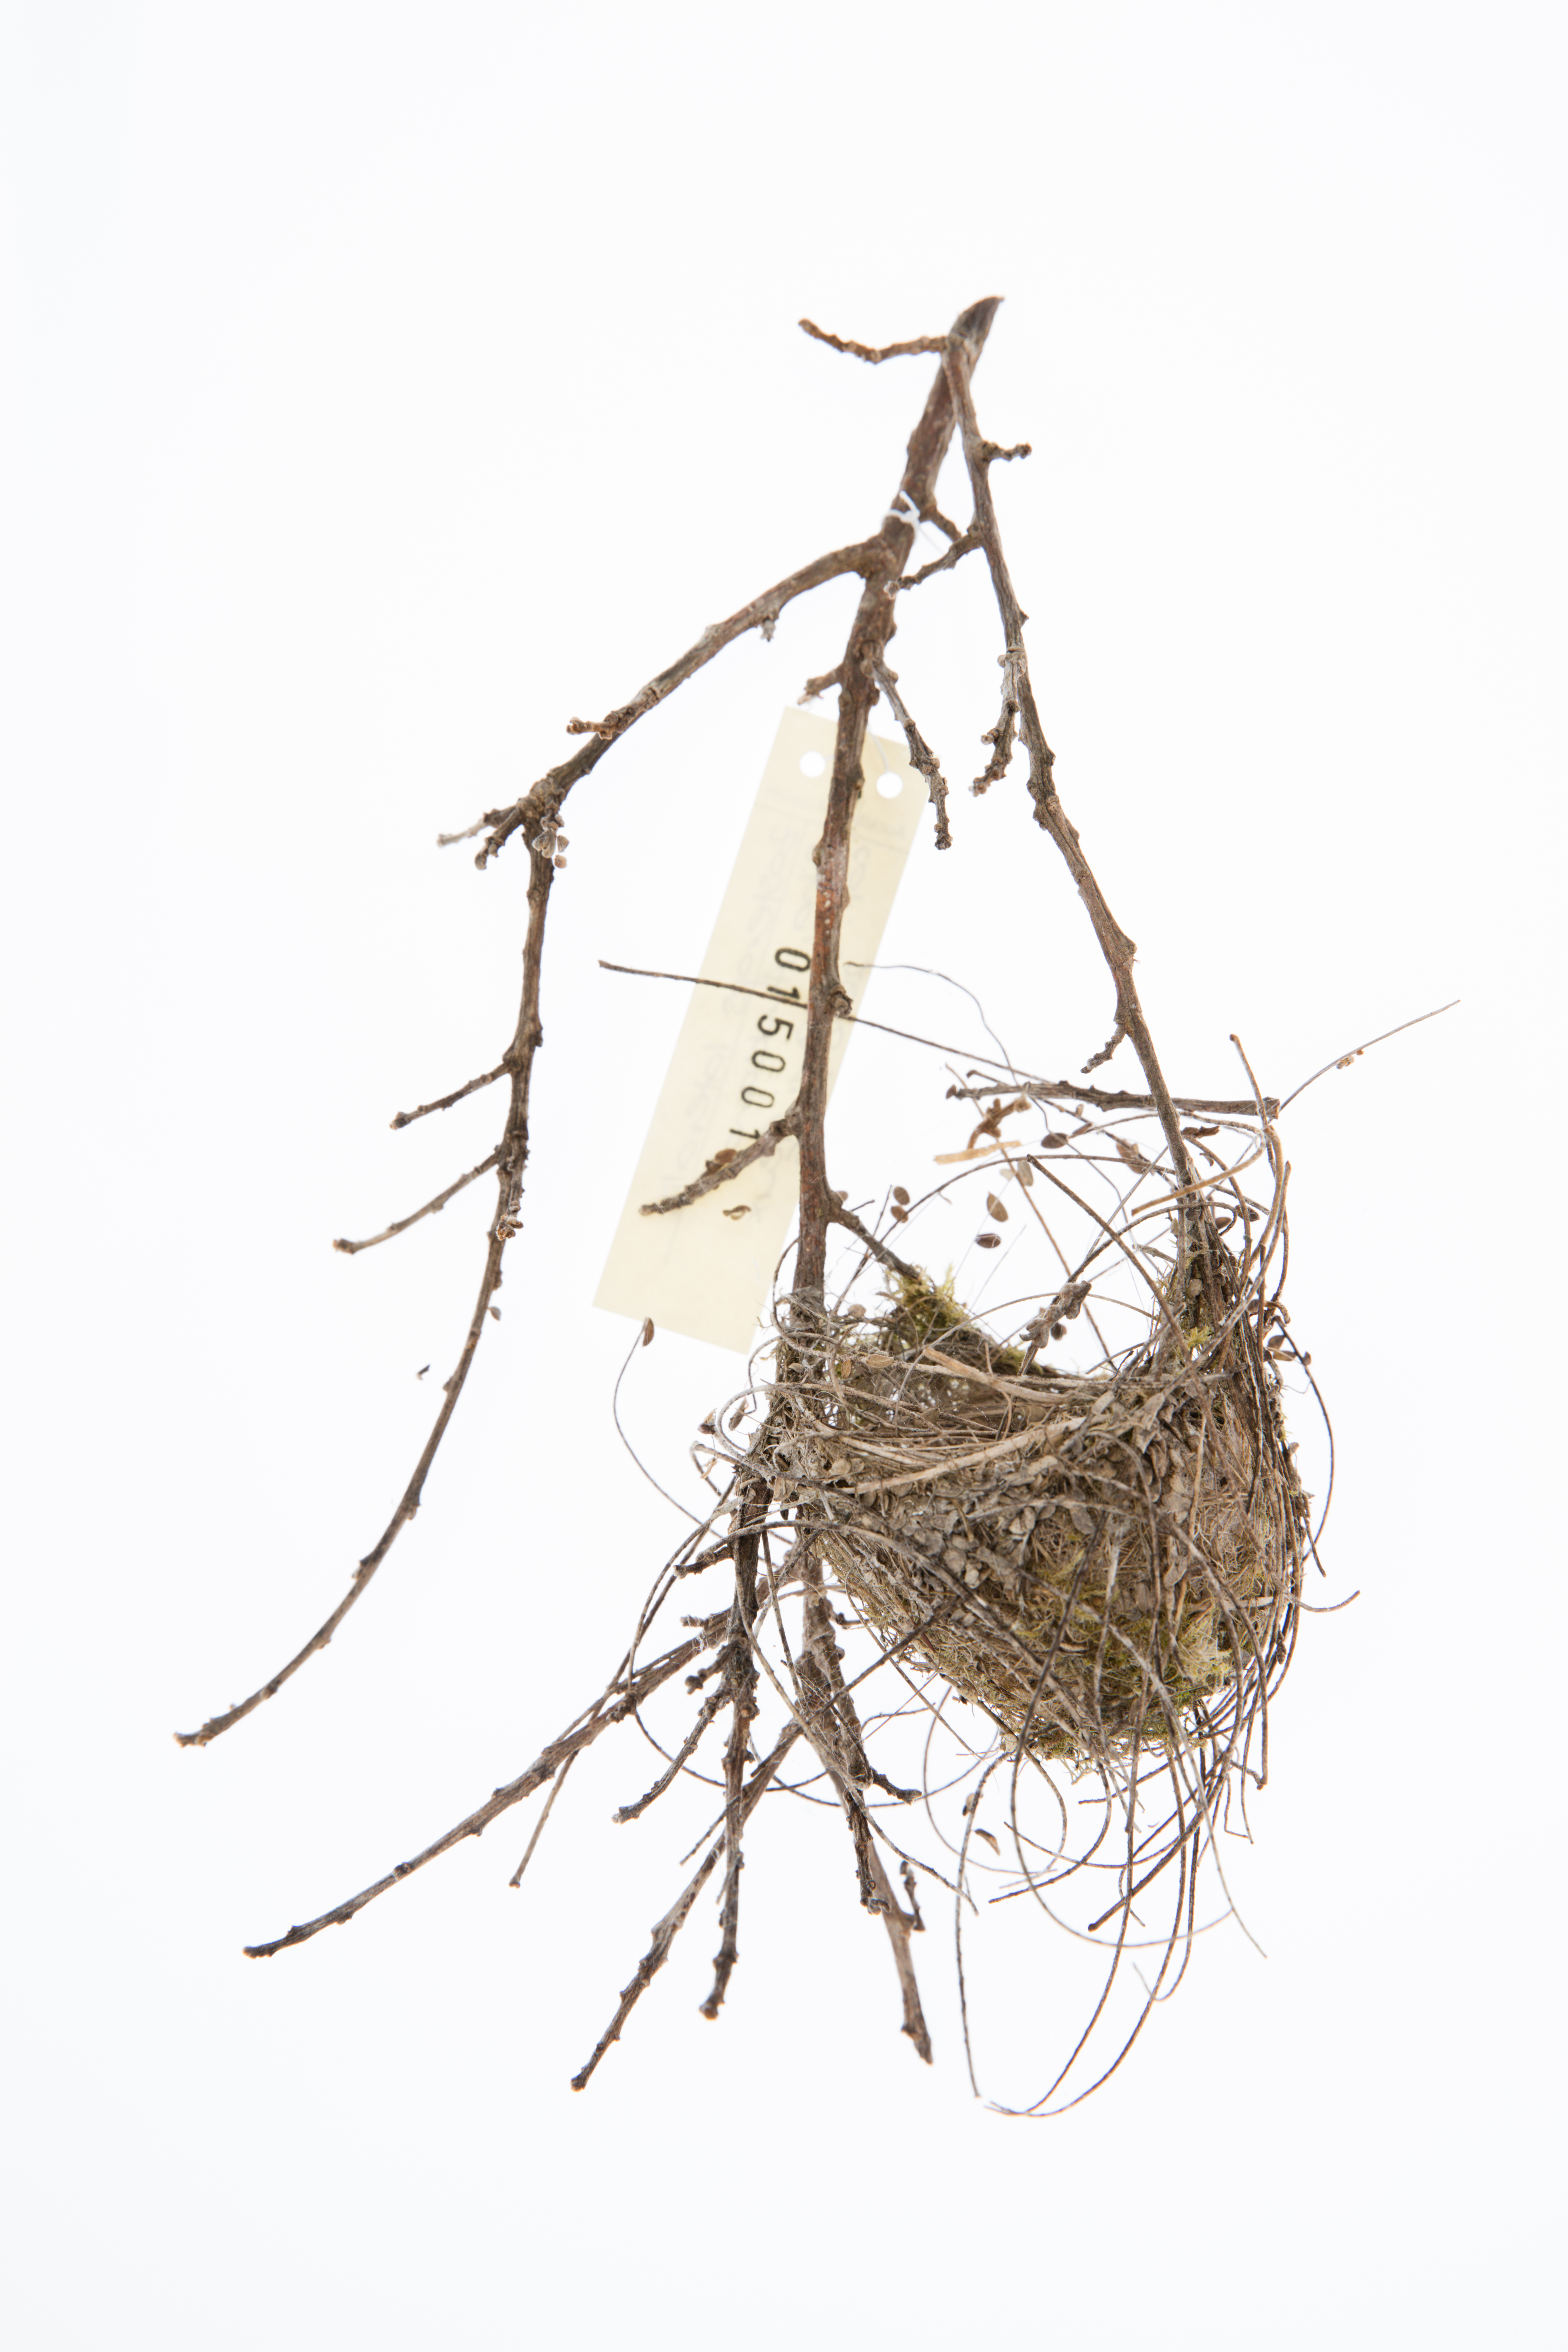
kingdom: Animalia
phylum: Chordata
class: Aves
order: Passeriformes
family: Zosteropidae
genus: Zosterops
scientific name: Zosterops lateralis
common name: Silvereye
